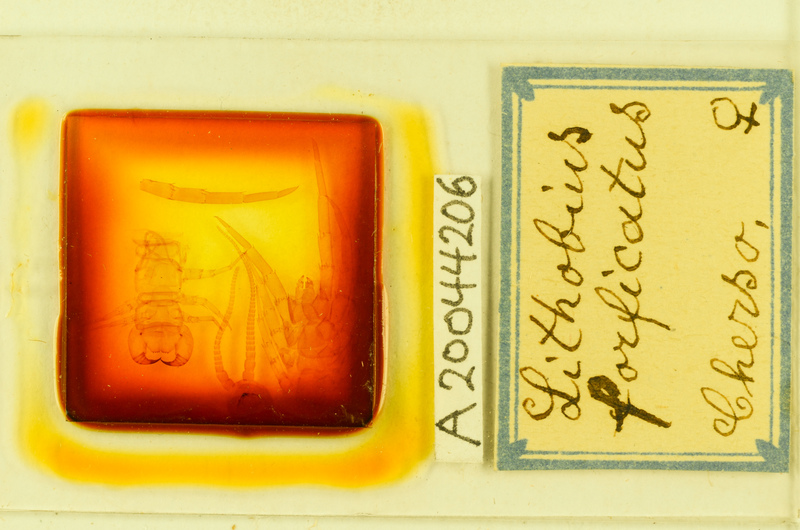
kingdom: Animalia
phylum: Arthropoda
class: Chilopoda
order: Lithobiomorpha
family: Lithobiidae
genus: Lithobius
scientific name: Lithobius forficatus
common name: Centipede
